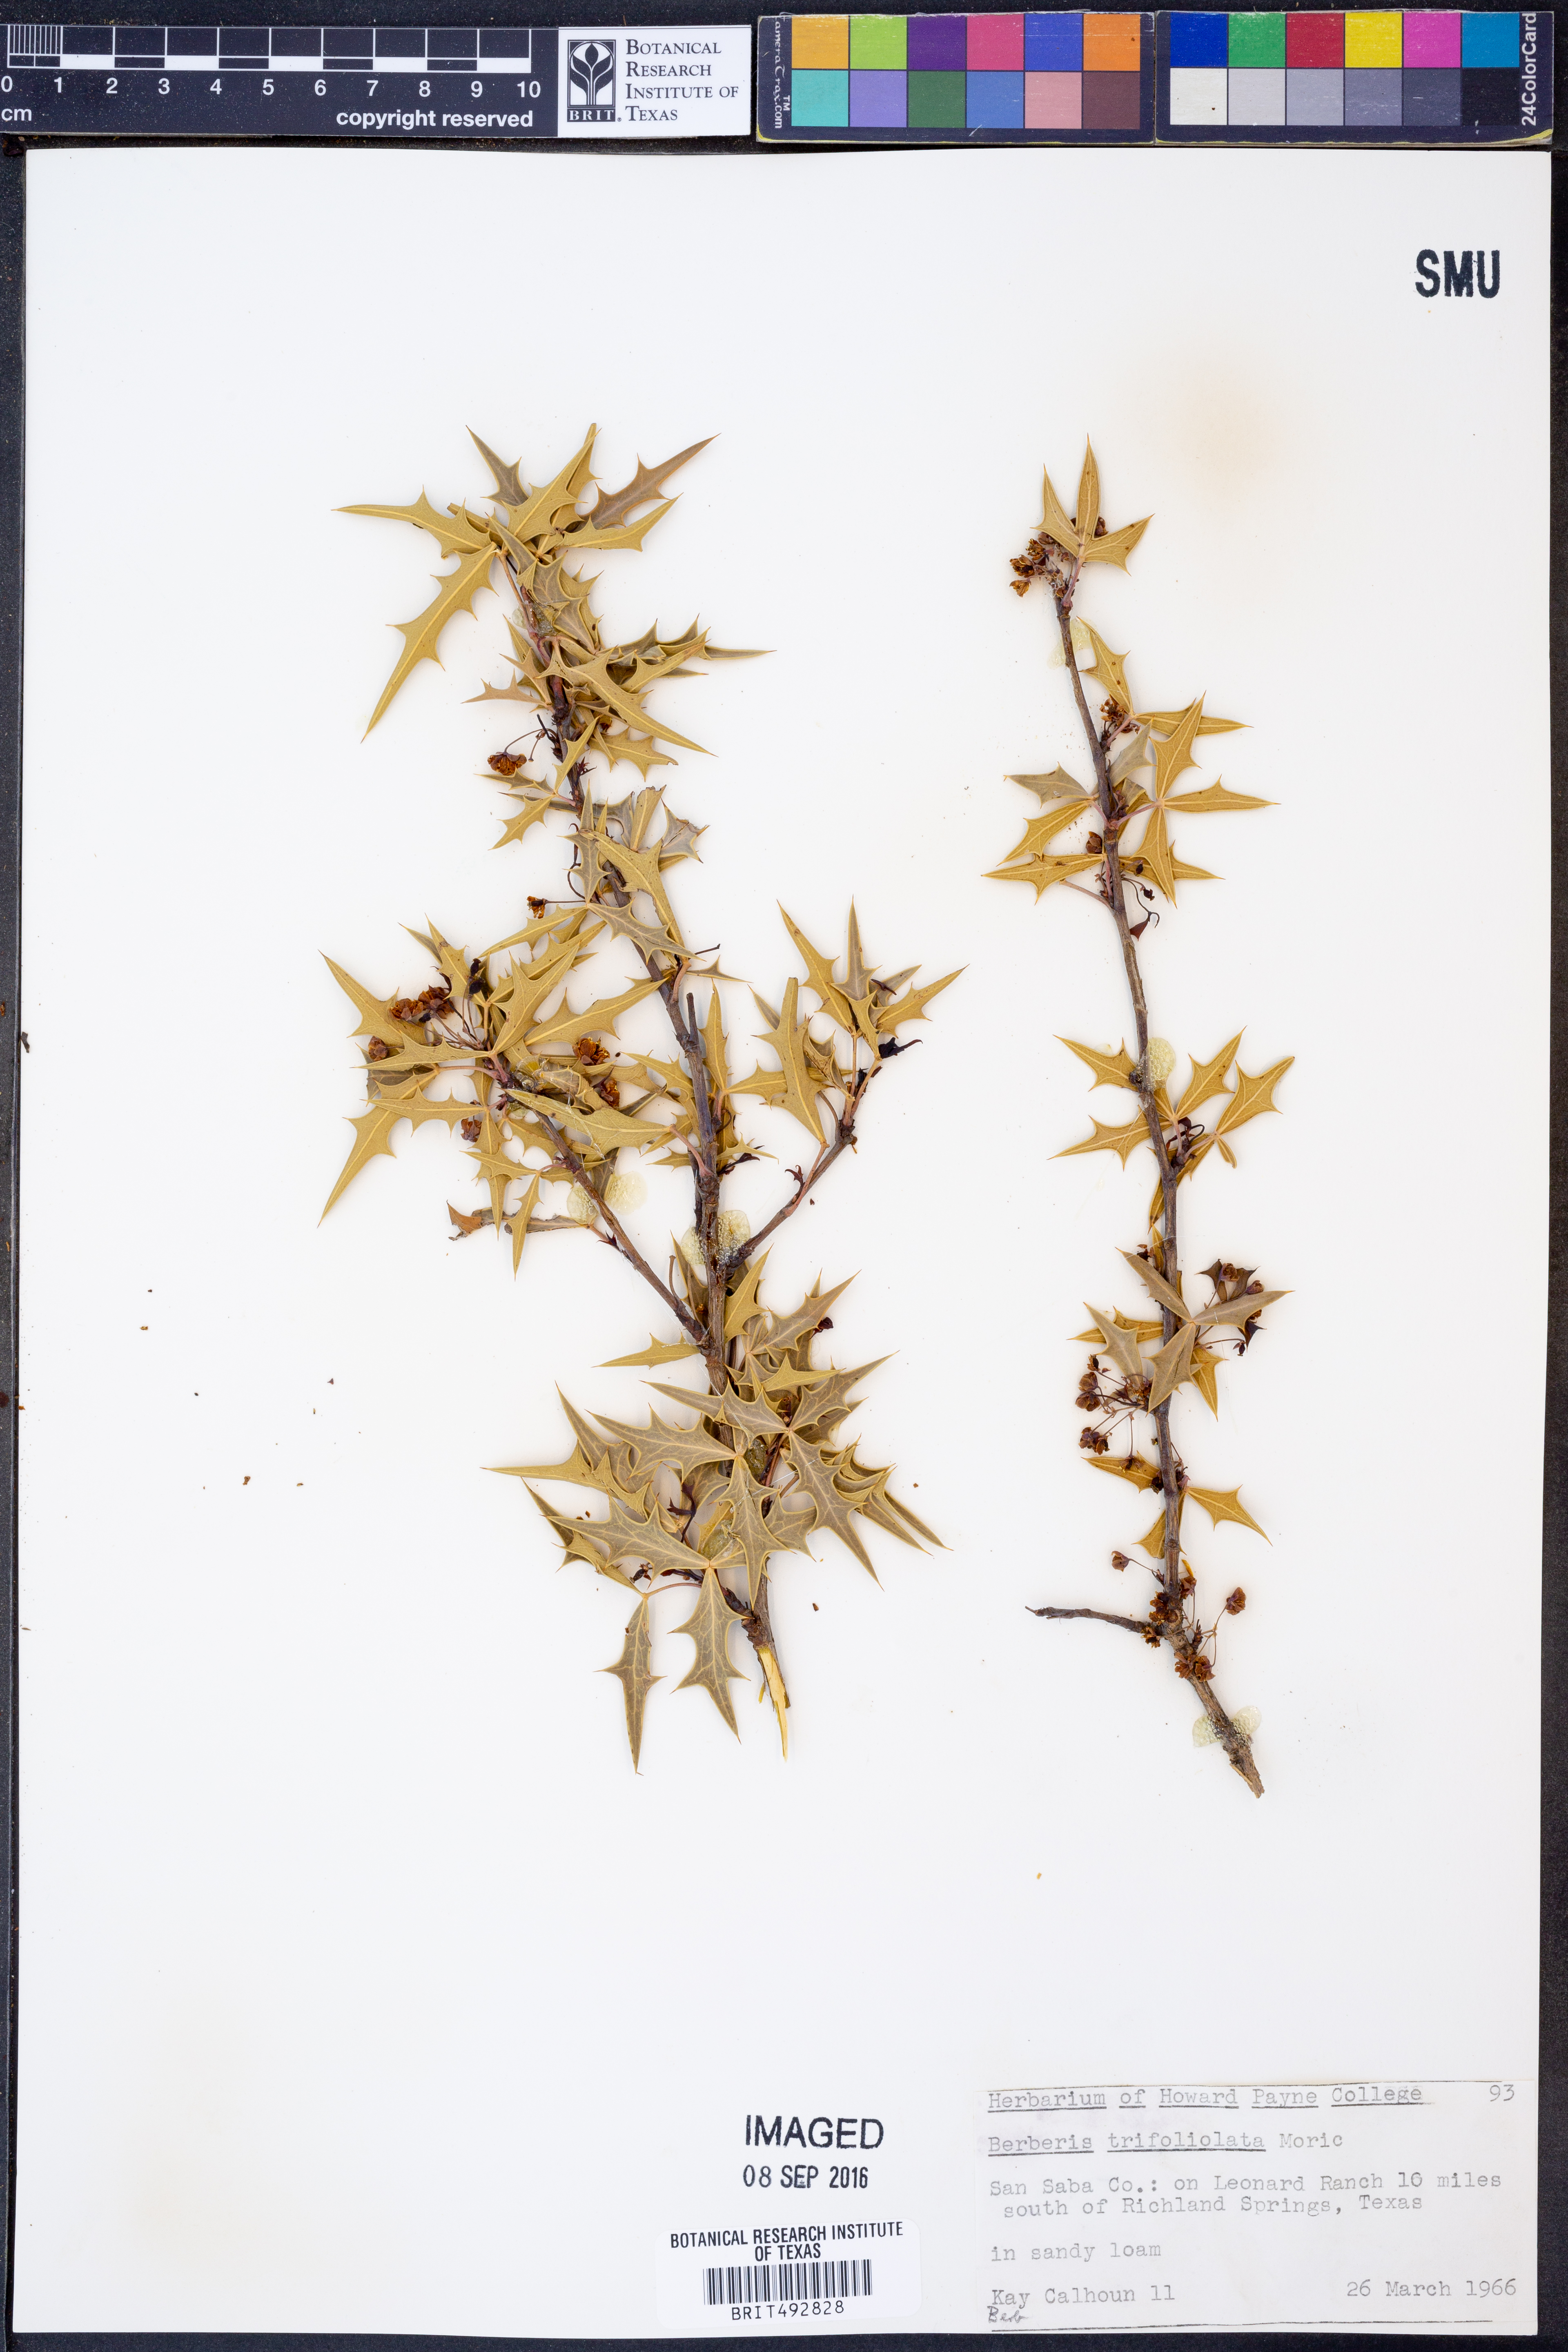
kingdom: Plantae
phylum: Tracheophyta
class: Magnoliopsida
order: Ranunculales
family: Berberidaceae
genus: Alloberberis
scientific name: Alloberberis trifoliolata
